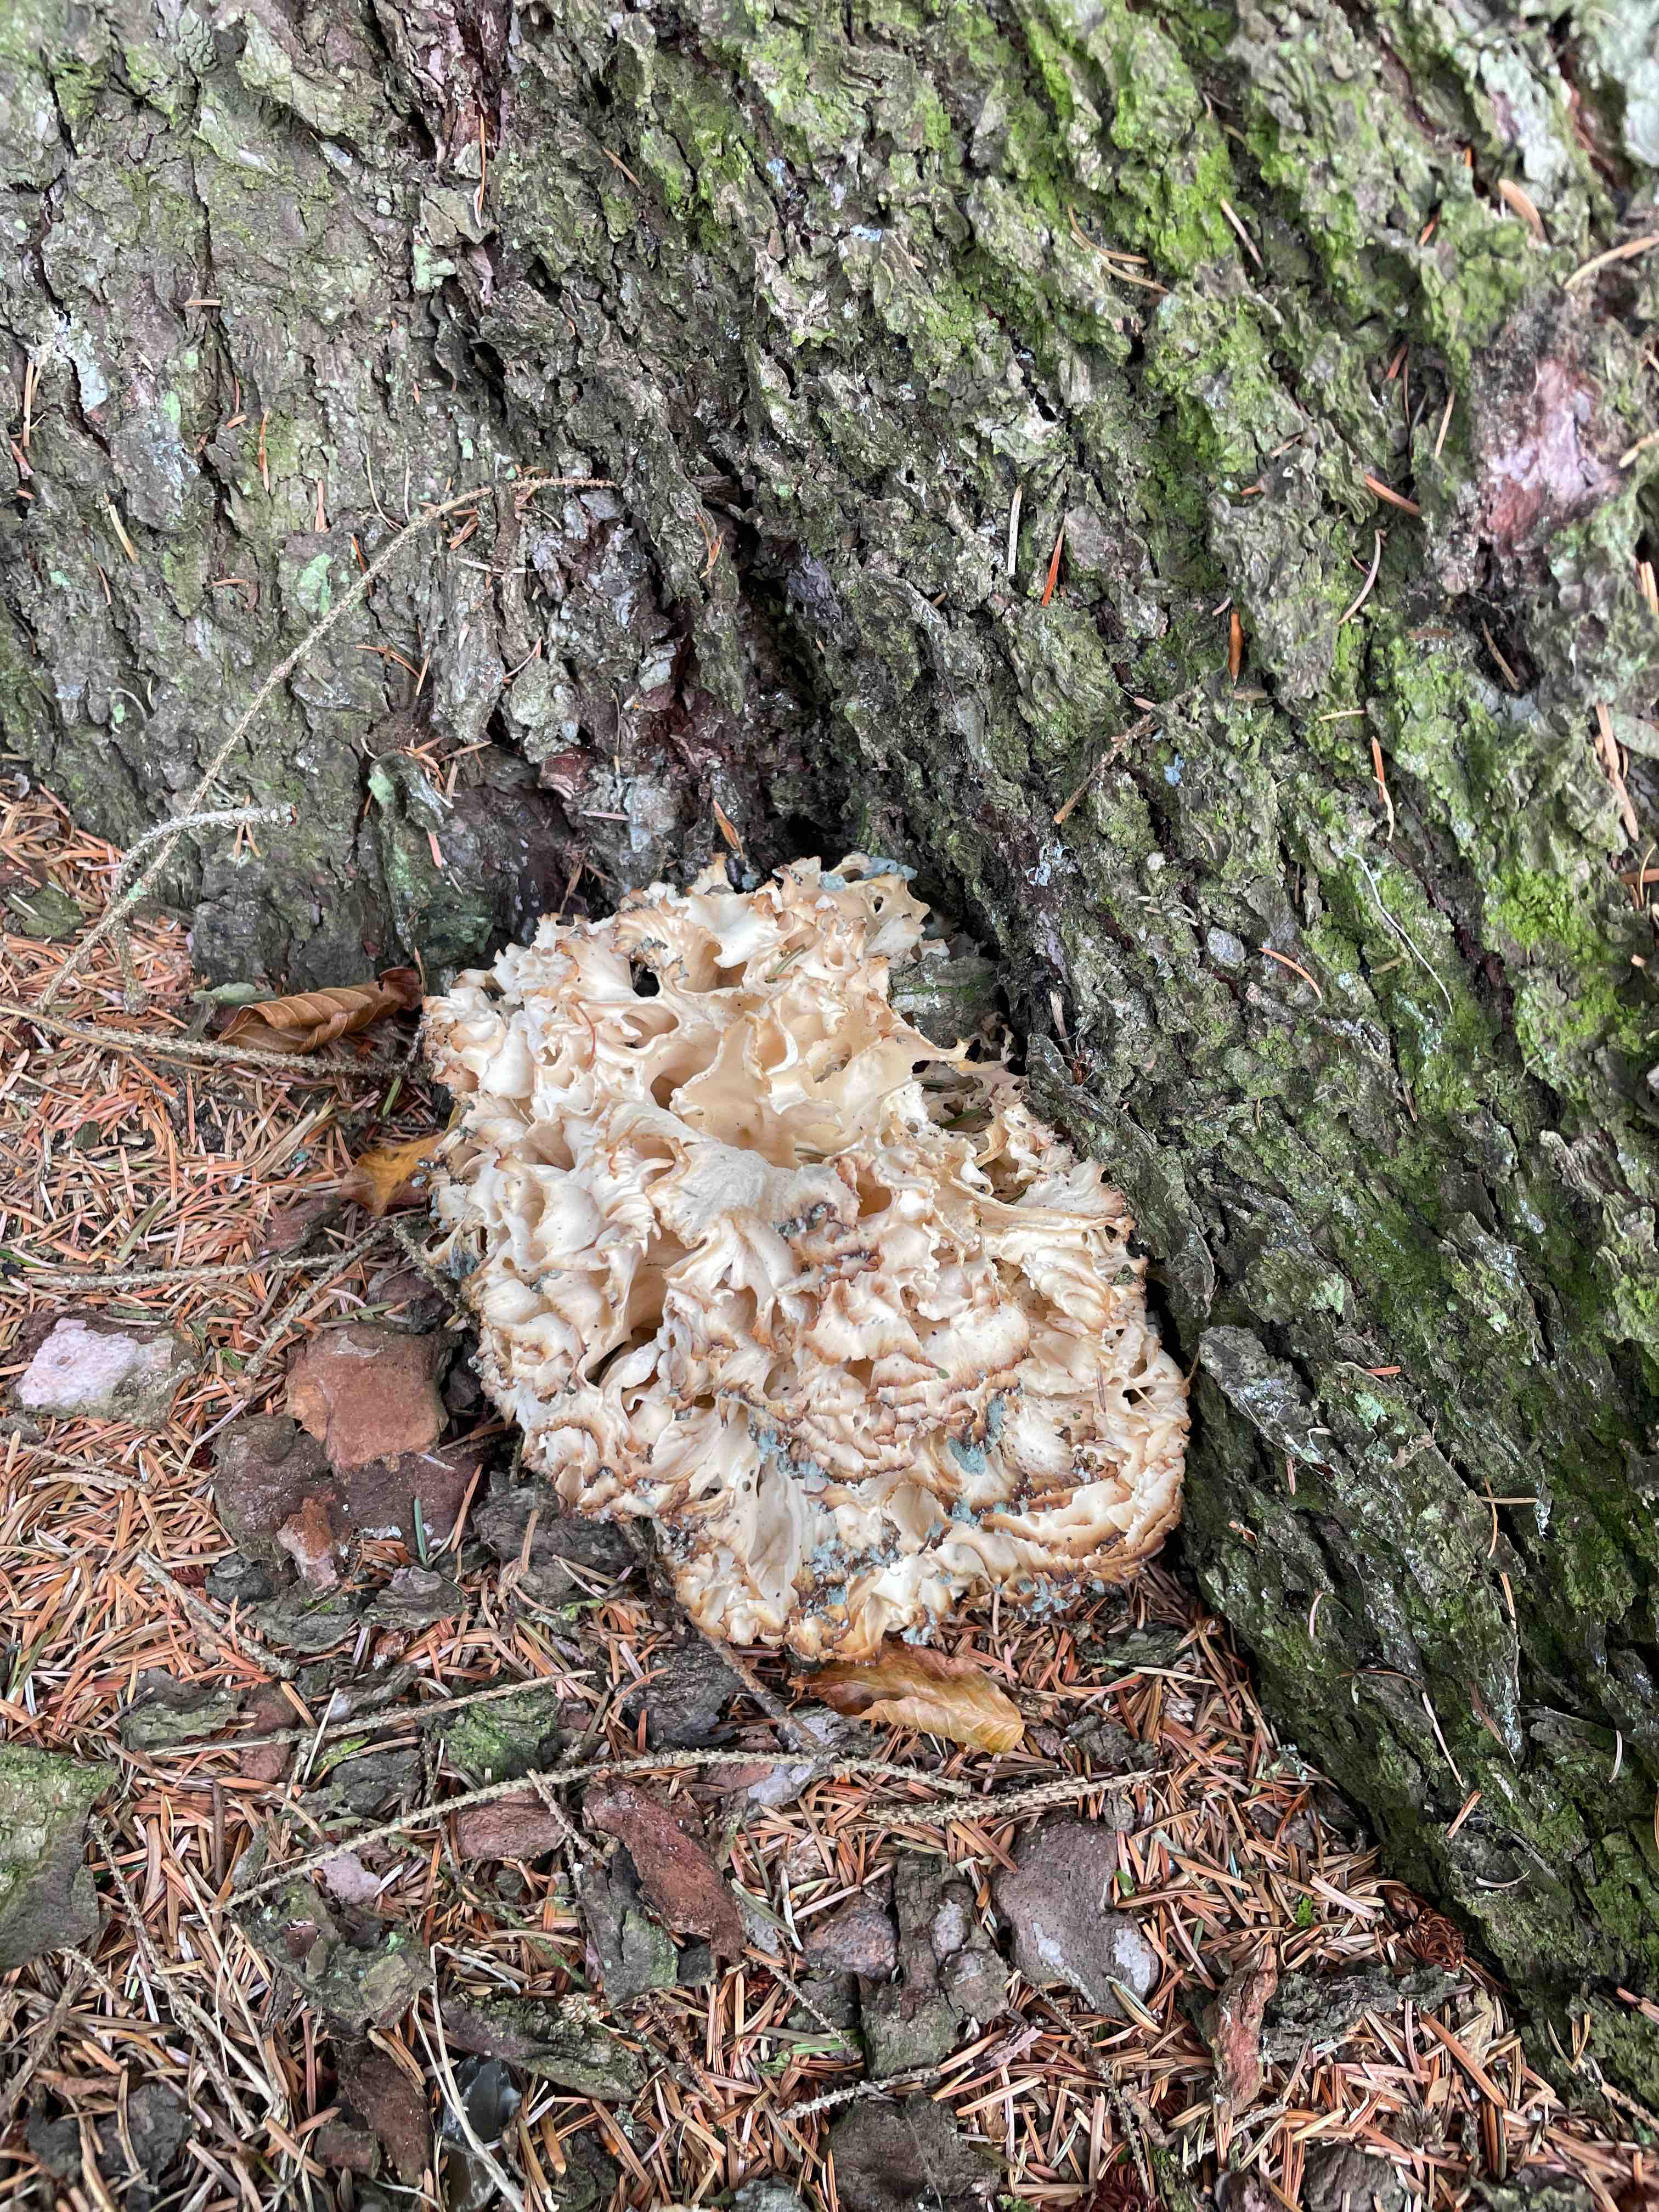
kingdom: Fungi
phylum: Basidiomycota
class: Agaricomycetes
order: Polyporales
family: Sparassidaceae
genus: Sparassis
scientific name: Sparassis crispa
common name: kruset blomkålssvamp
